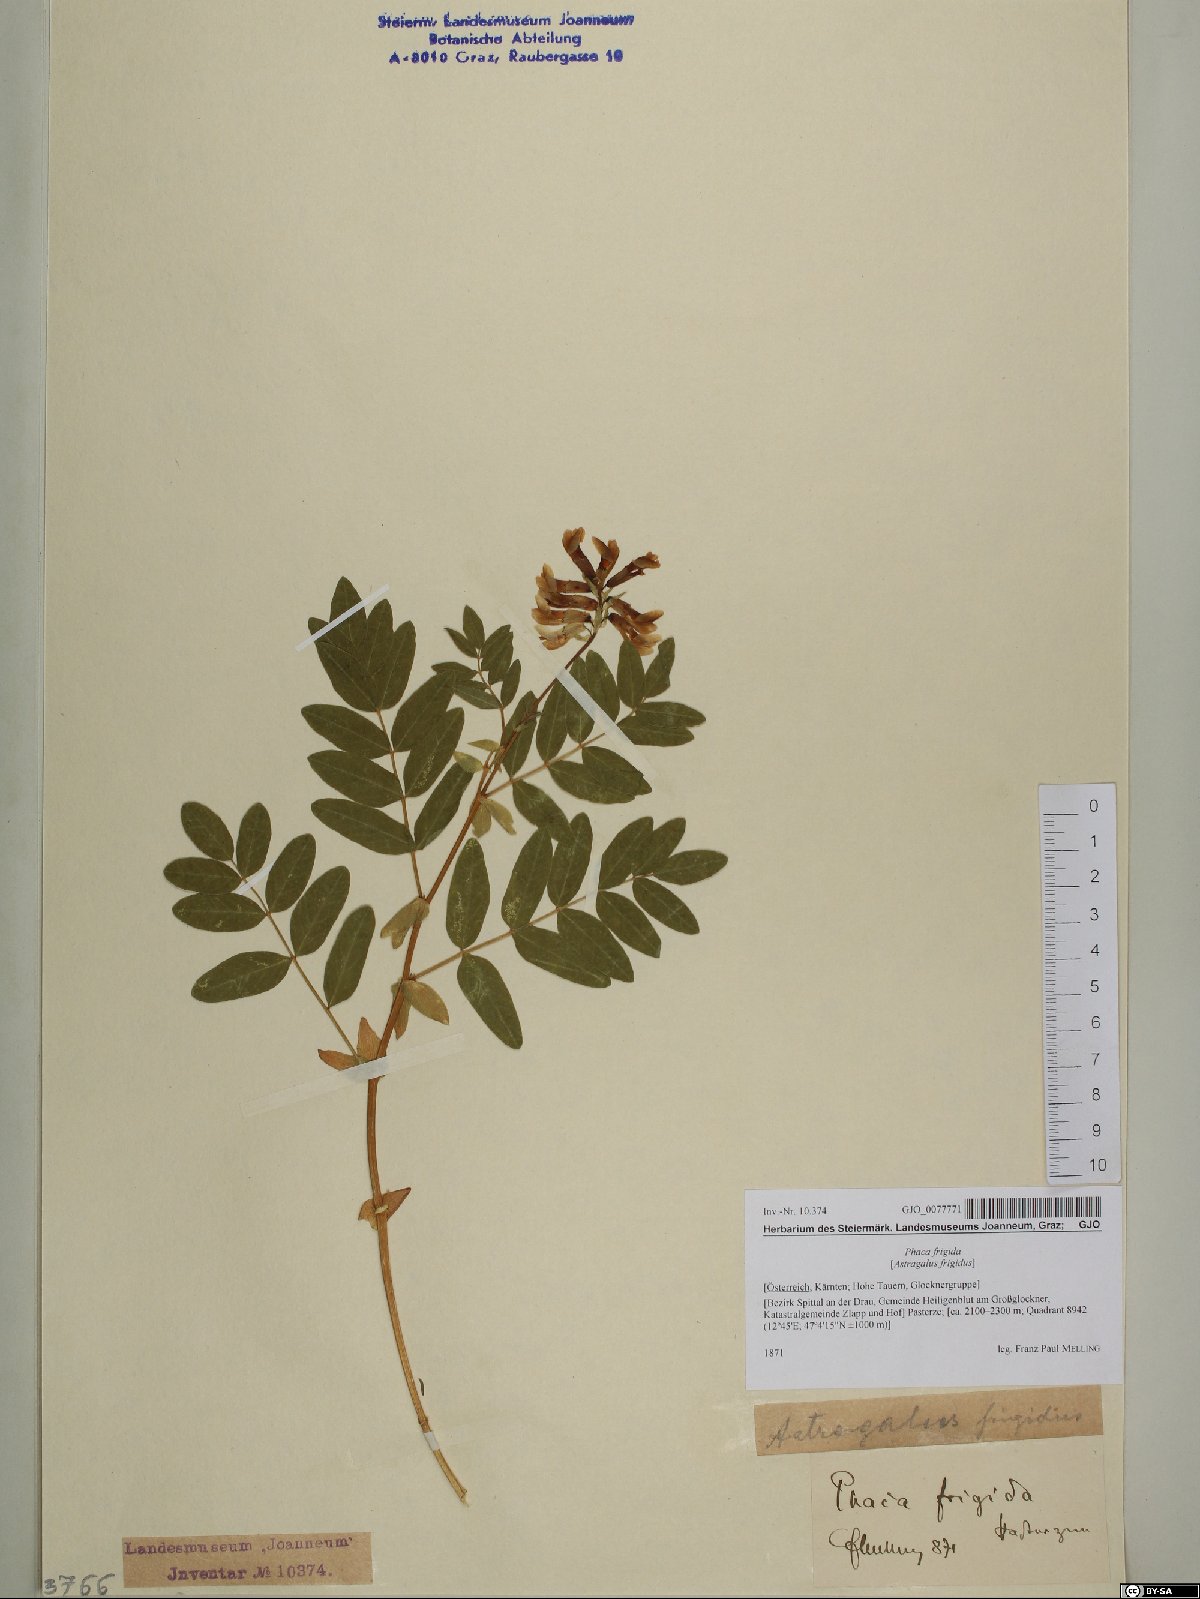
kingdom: Plantae
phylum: Tracheophyta
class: Magnoliopsida
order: Fabales
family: Fabaceae
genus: Astragalus
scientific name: Astragalus frigidus
